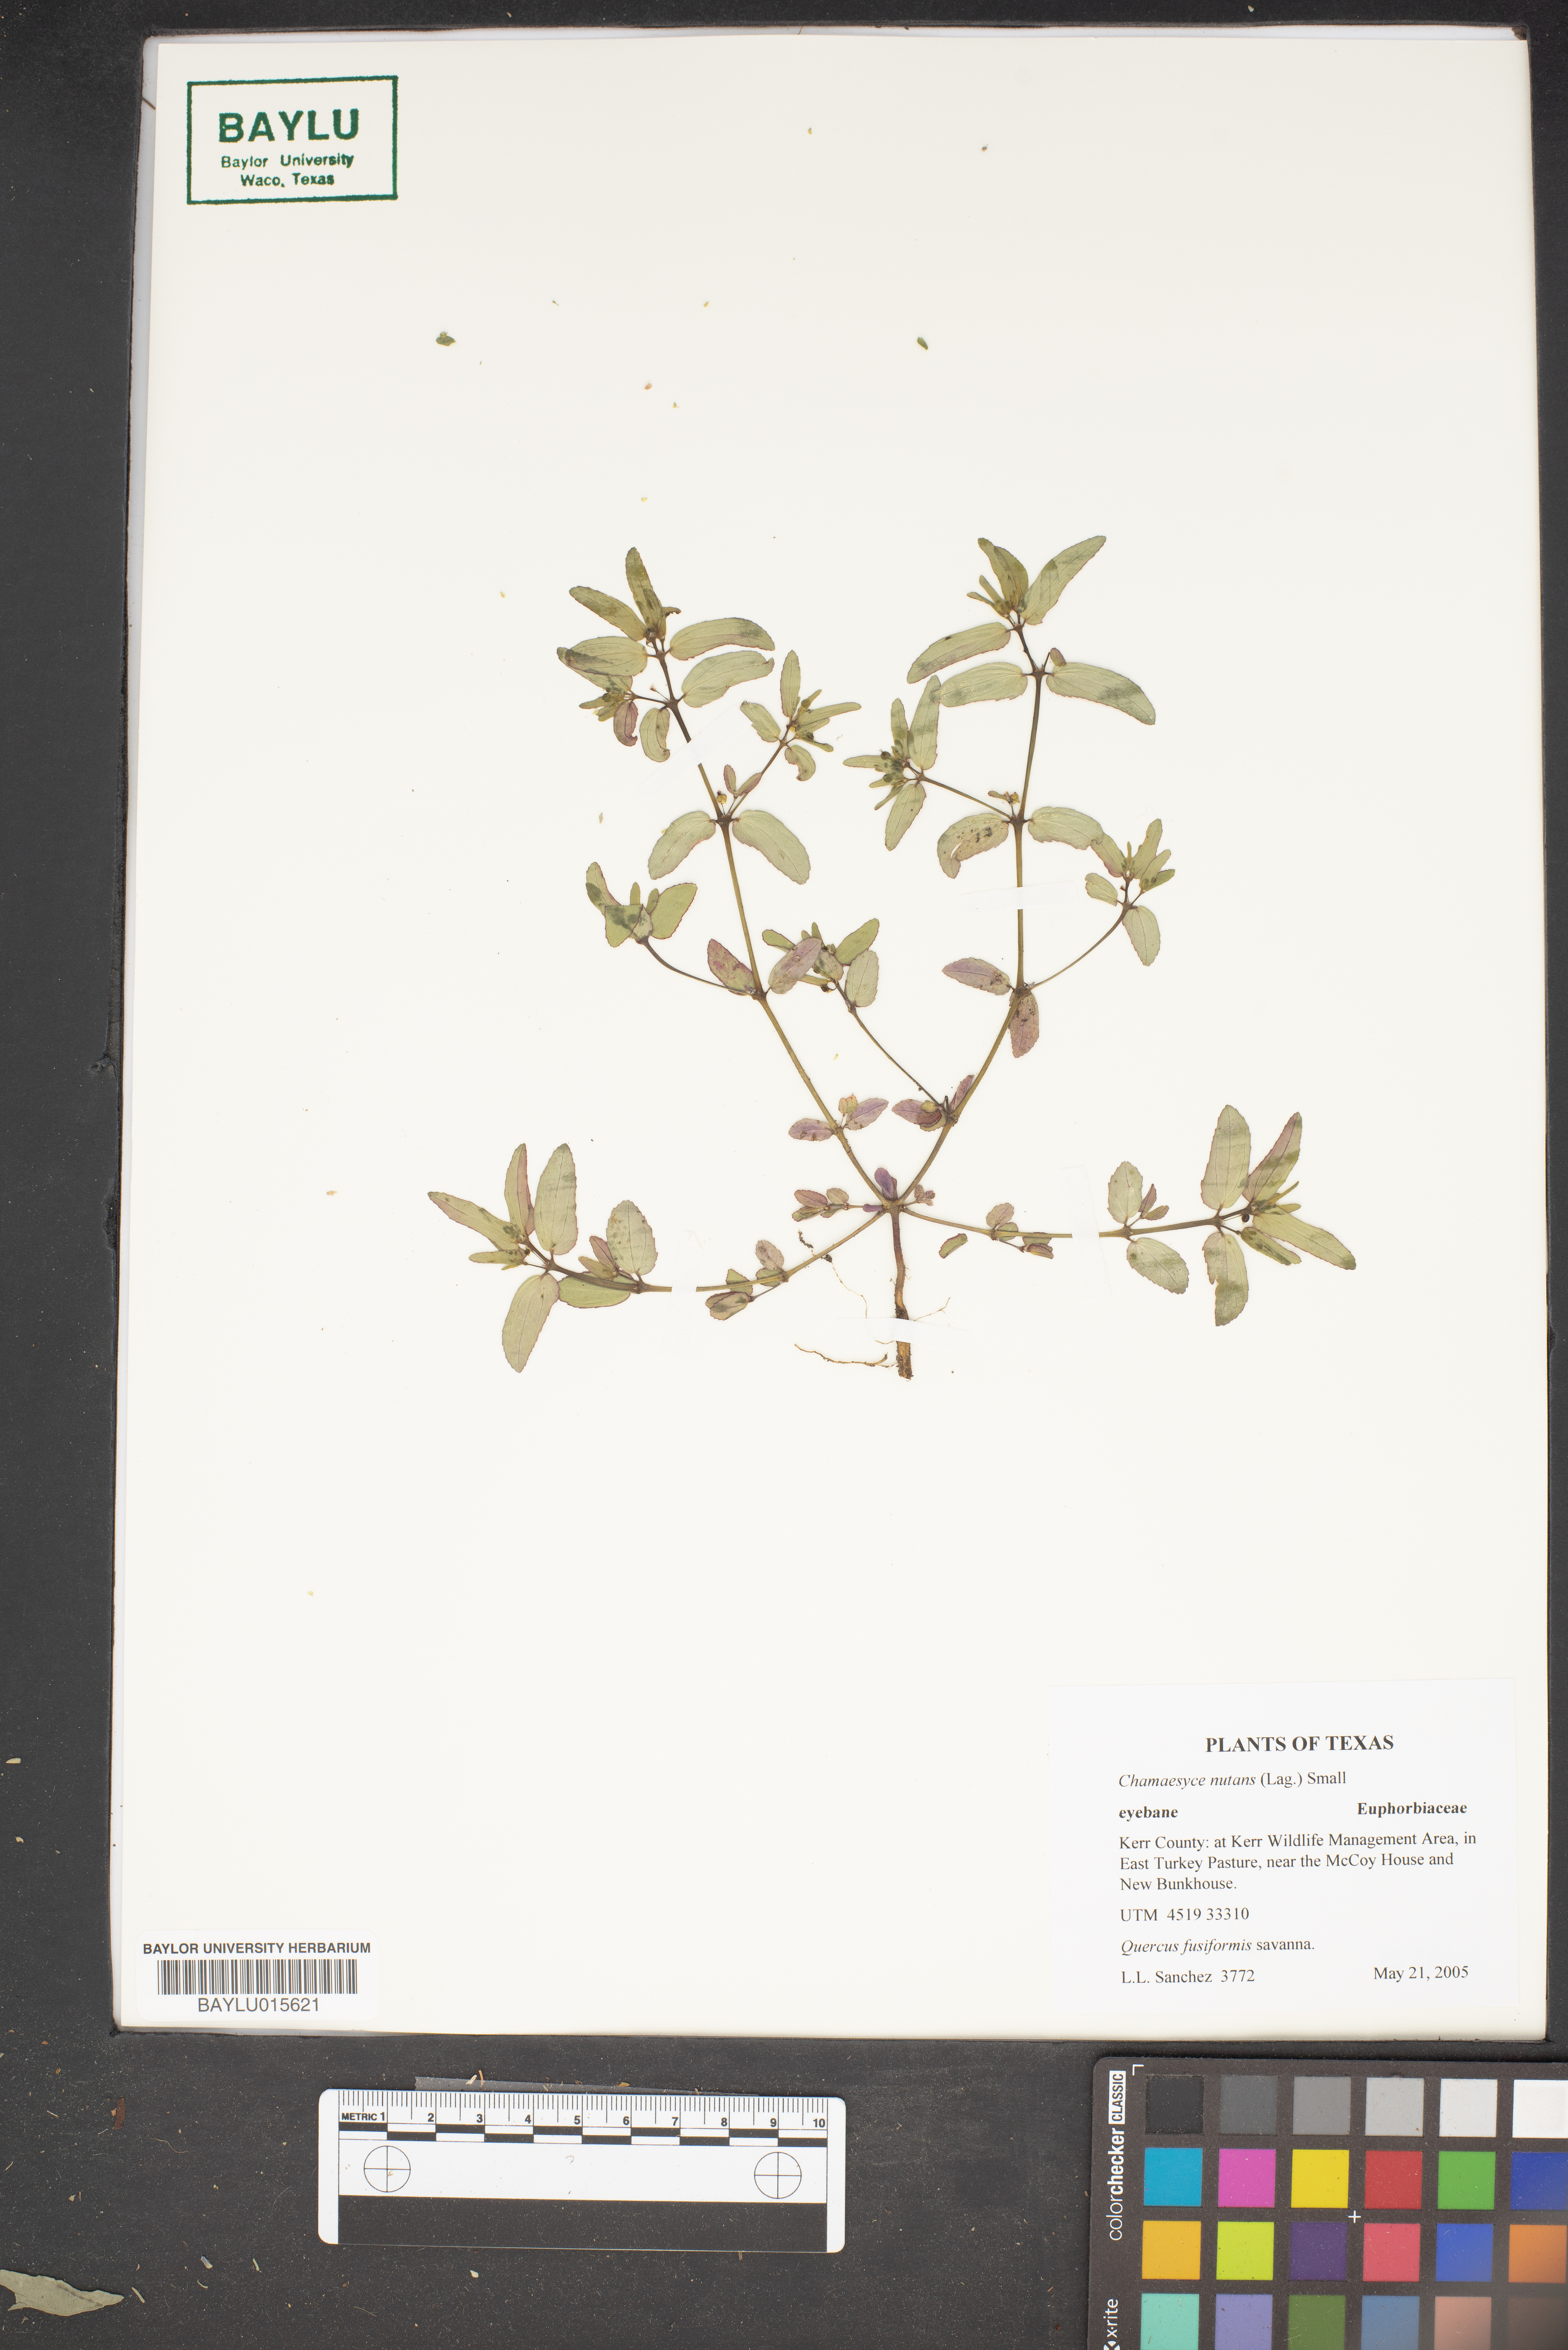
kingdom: Plantae
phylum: Tracheophyta
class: Magnoliopsida
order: Malpighiales
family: Euphorbiaceae
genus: Euphorbia
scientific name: Euphorbia nutans
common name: Eyebane
